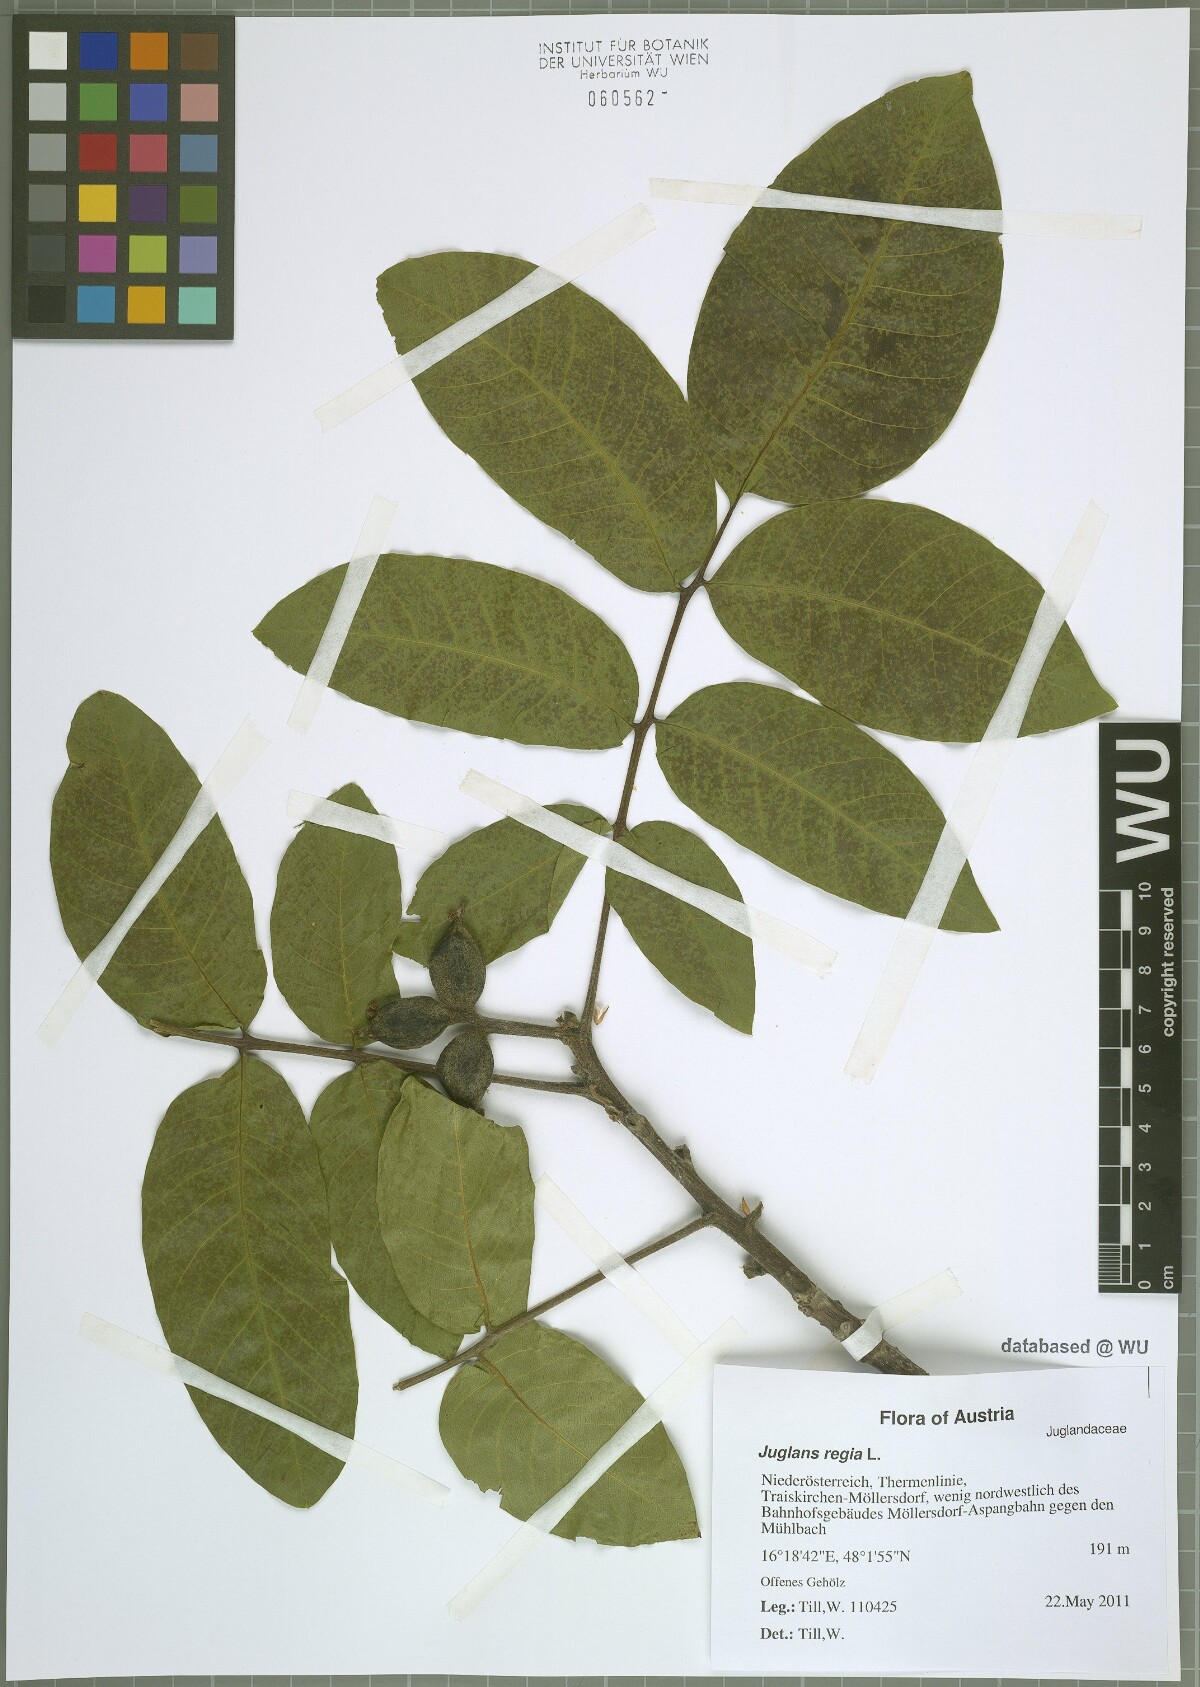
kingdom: Plantae
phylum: Tracheophyta
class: Magnoliopsida
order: Fagales
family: Juglandaceae
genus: Juglans
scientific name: Juglans regia
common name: Walnut
